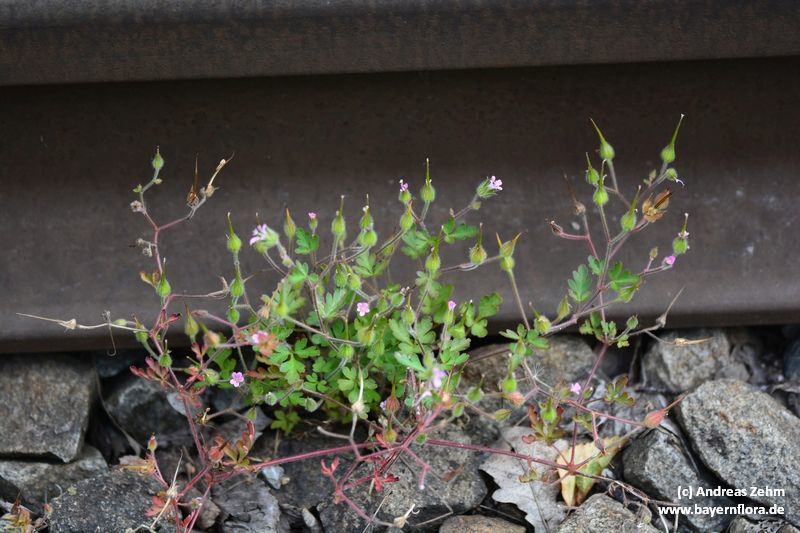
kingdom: Plantae
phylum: Tracheophyta
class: Magnoliopsida
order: Geraniales
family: Geraniaceae
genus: Geranium
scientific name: Geranium purpureum
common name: Little-robin
